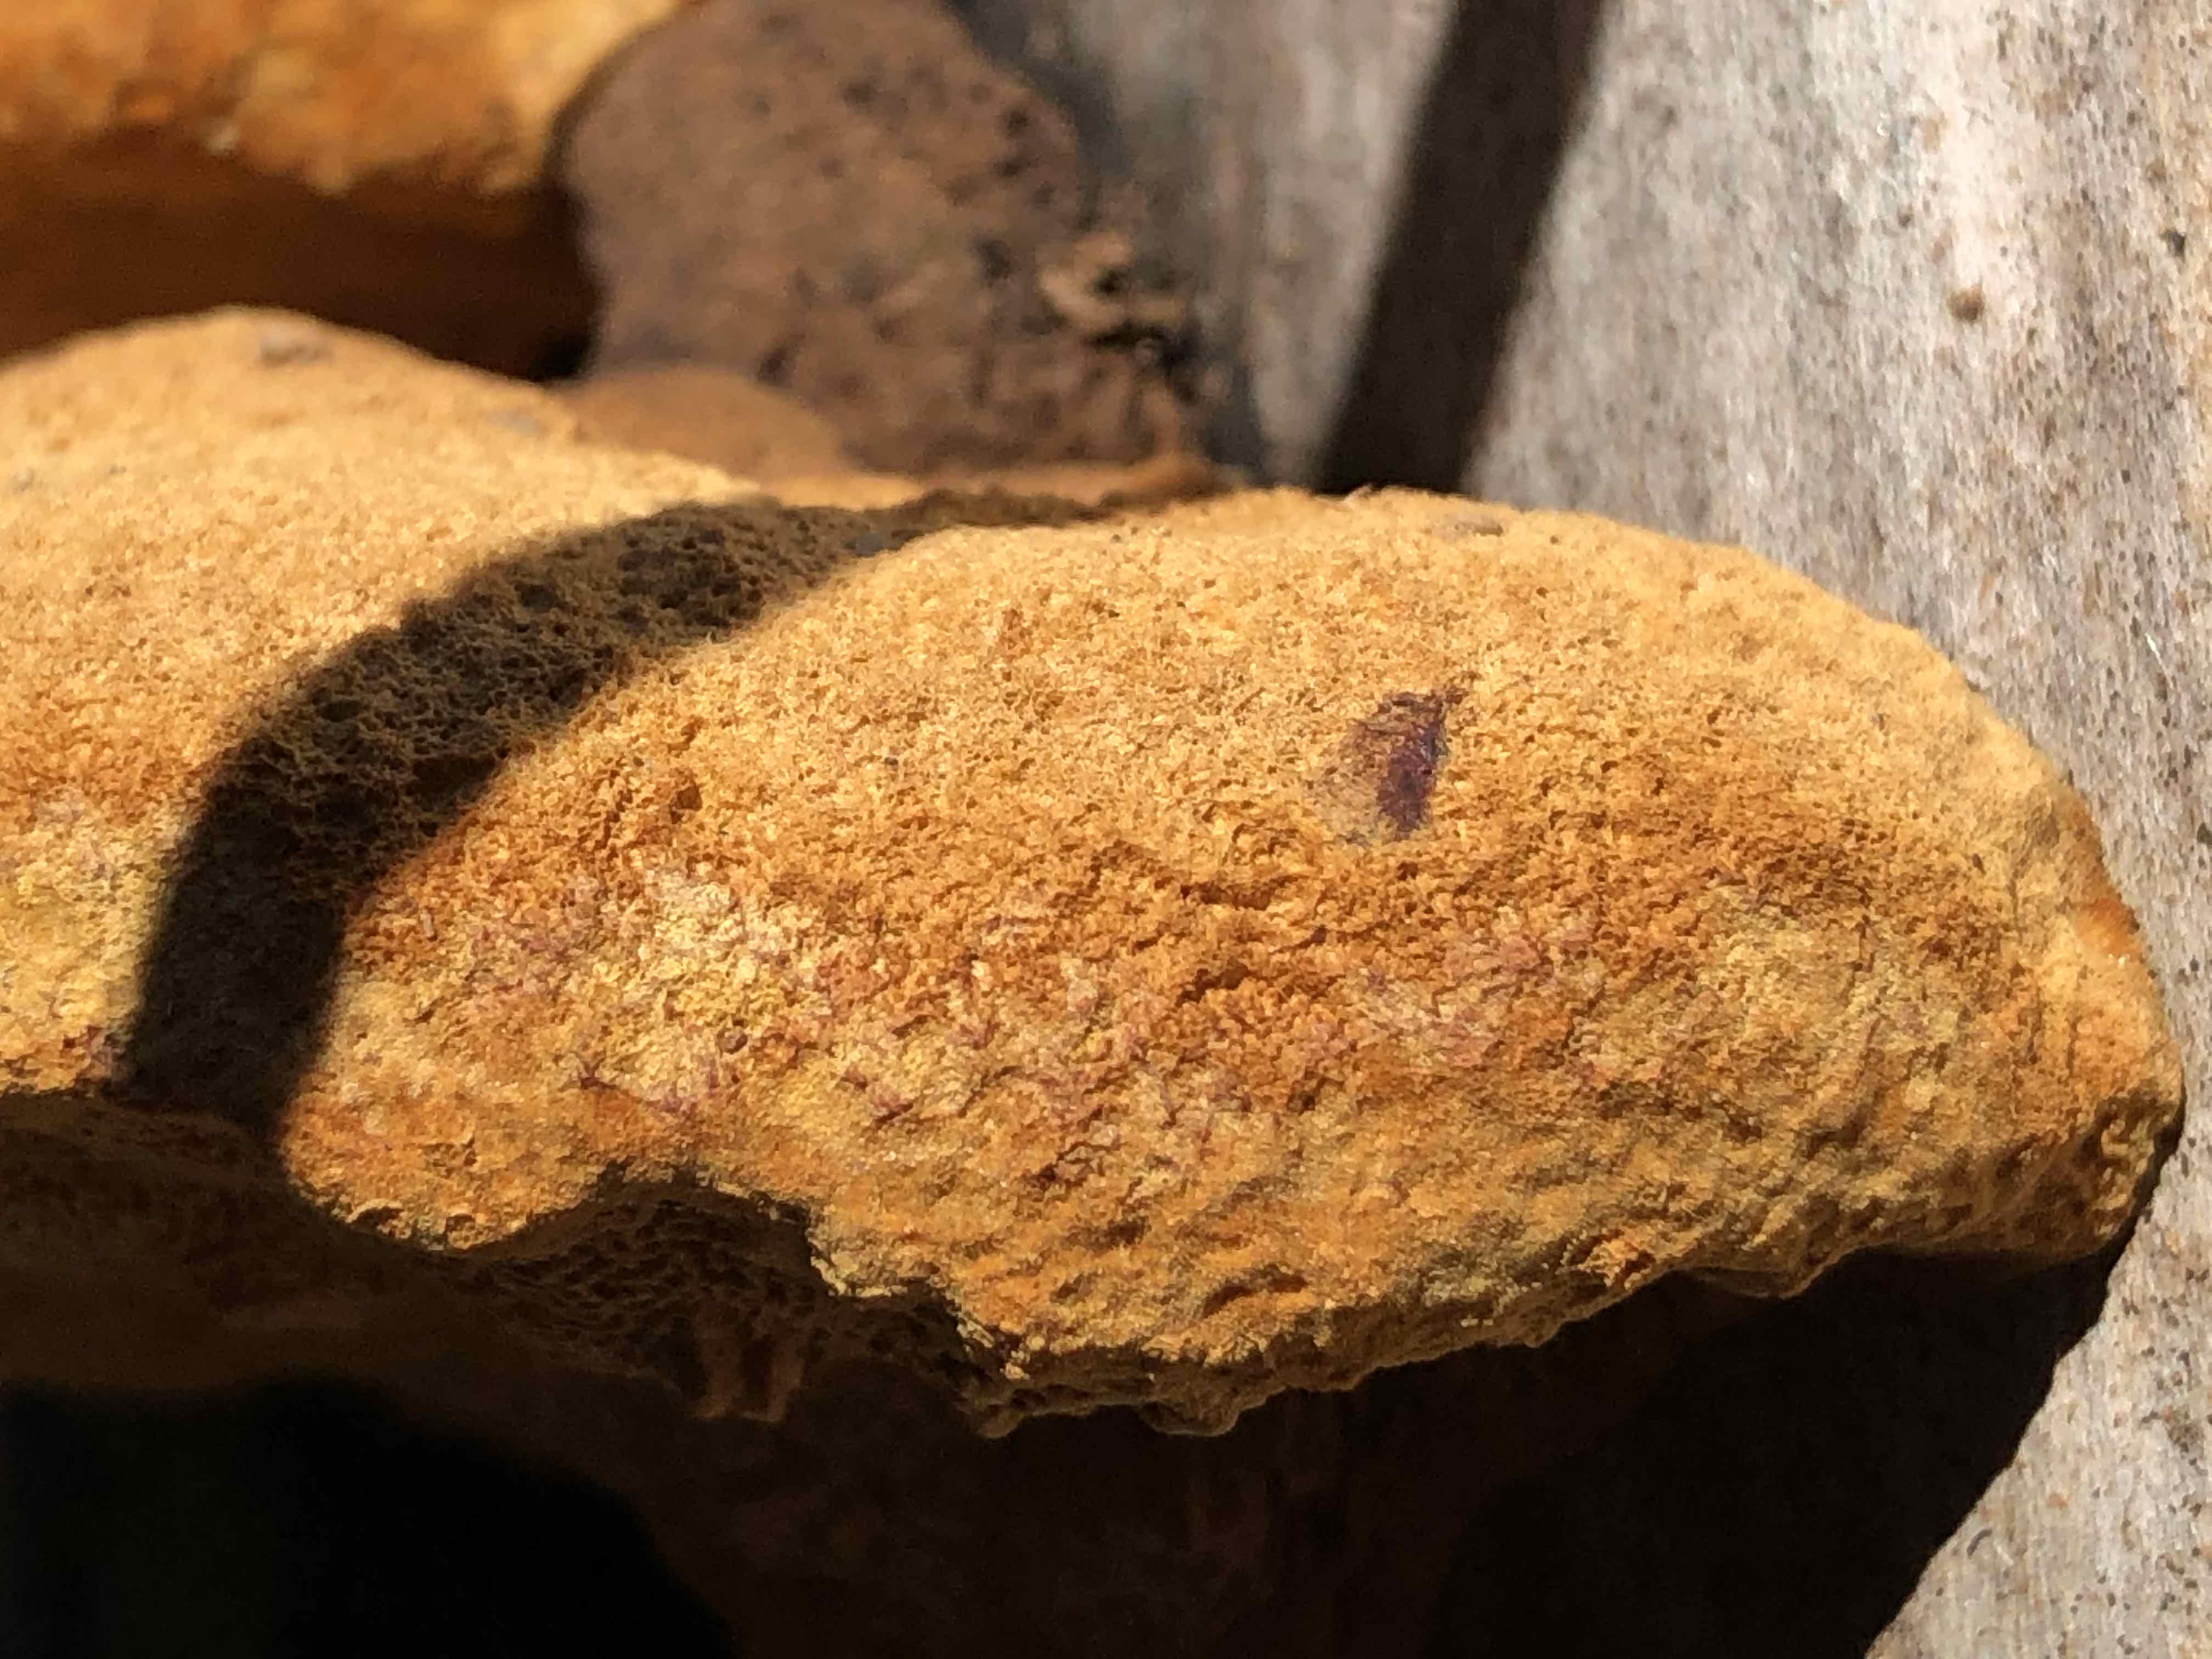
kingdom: Fungi
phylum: Basidiomycota
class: Agaricomycetes
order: Gloeophyllales
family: Gloeophyllaceae
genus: Gloeophyllum
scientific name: Gloeophyllum odoratum
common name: duftende korkhat
